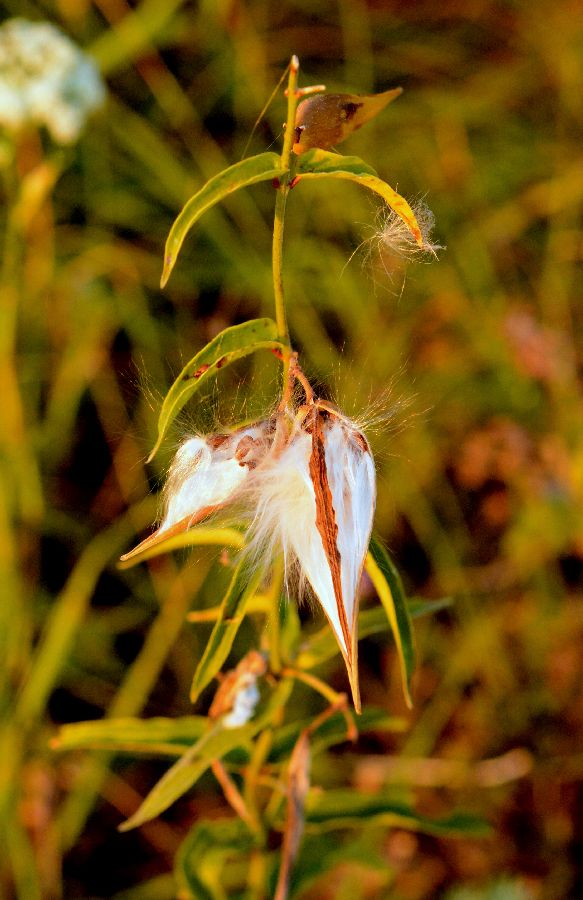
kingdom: Plantae
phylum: Tracheophyta
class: Magnoliopsida
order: Gentianales
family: Apocynaceae
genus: Vincetoxicum
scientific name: Vincetoxicum hirundinaria
